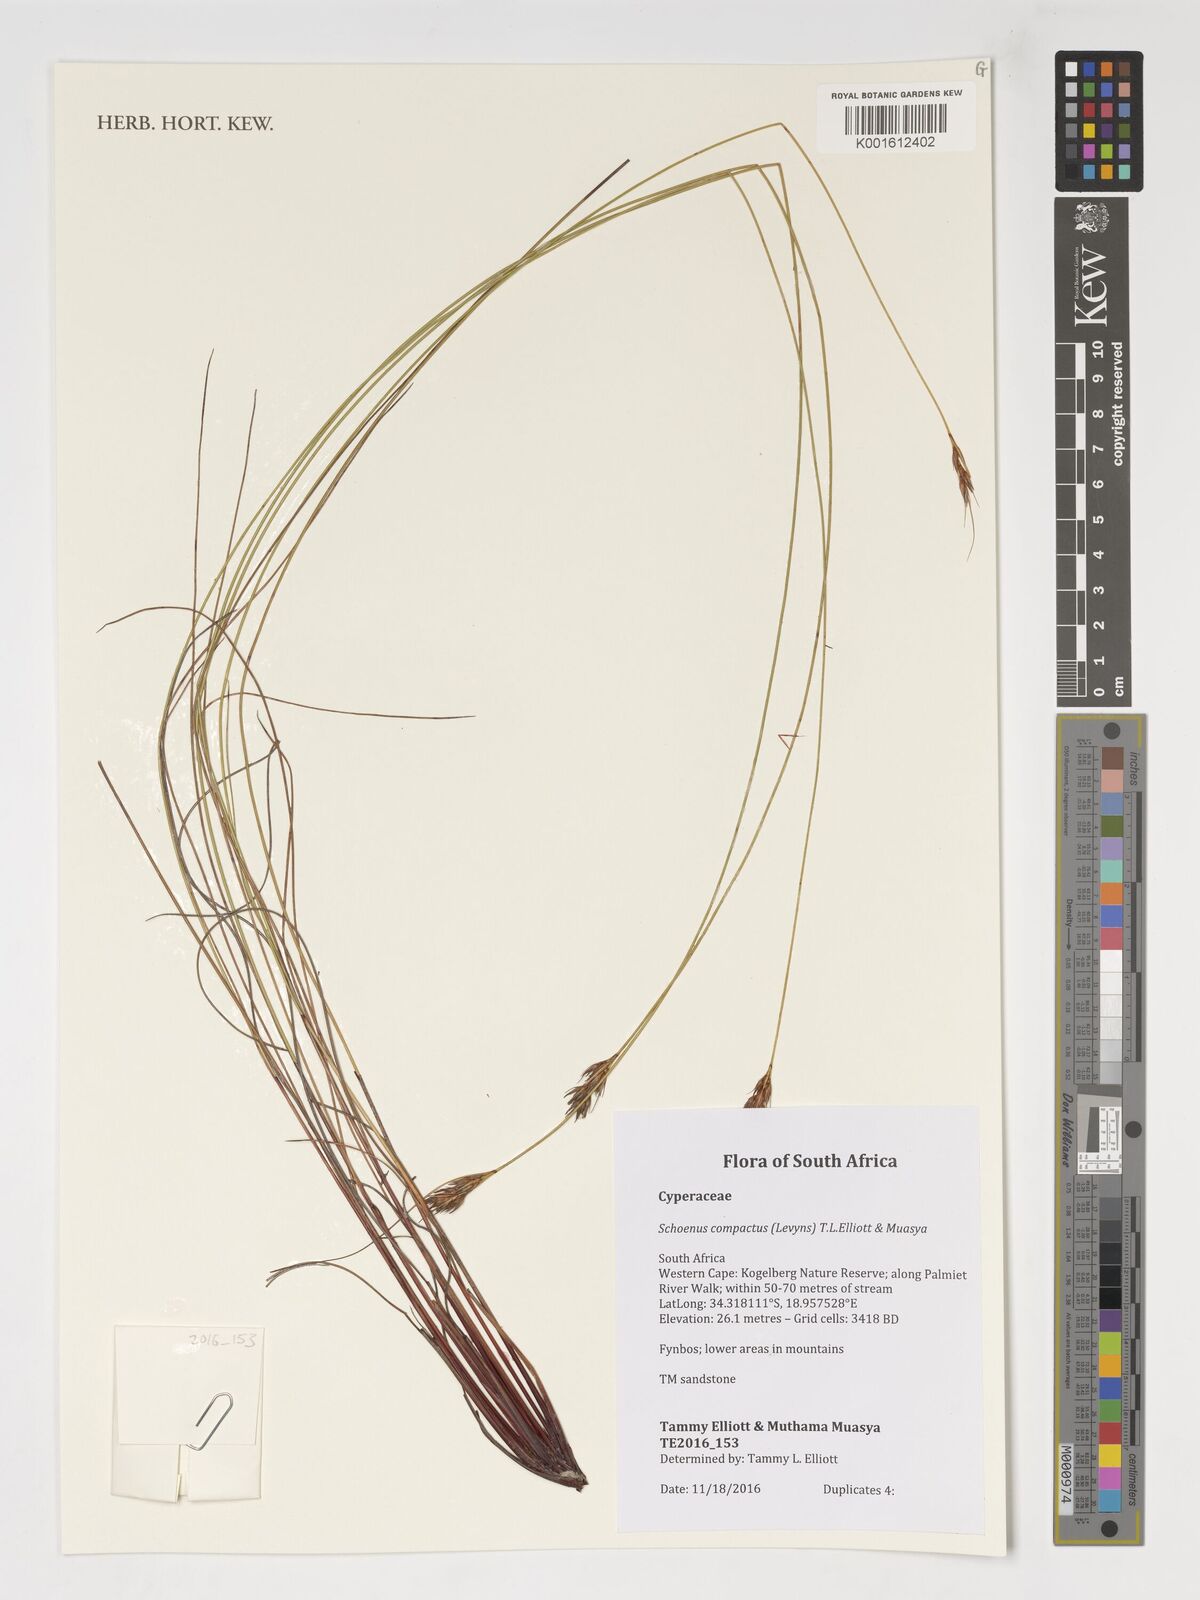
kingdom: Plantae
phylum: Tracheophyta
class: Liliopsida
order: Poales
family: Cyperaceae
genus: Schoenus
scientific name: Schoenus compactus
